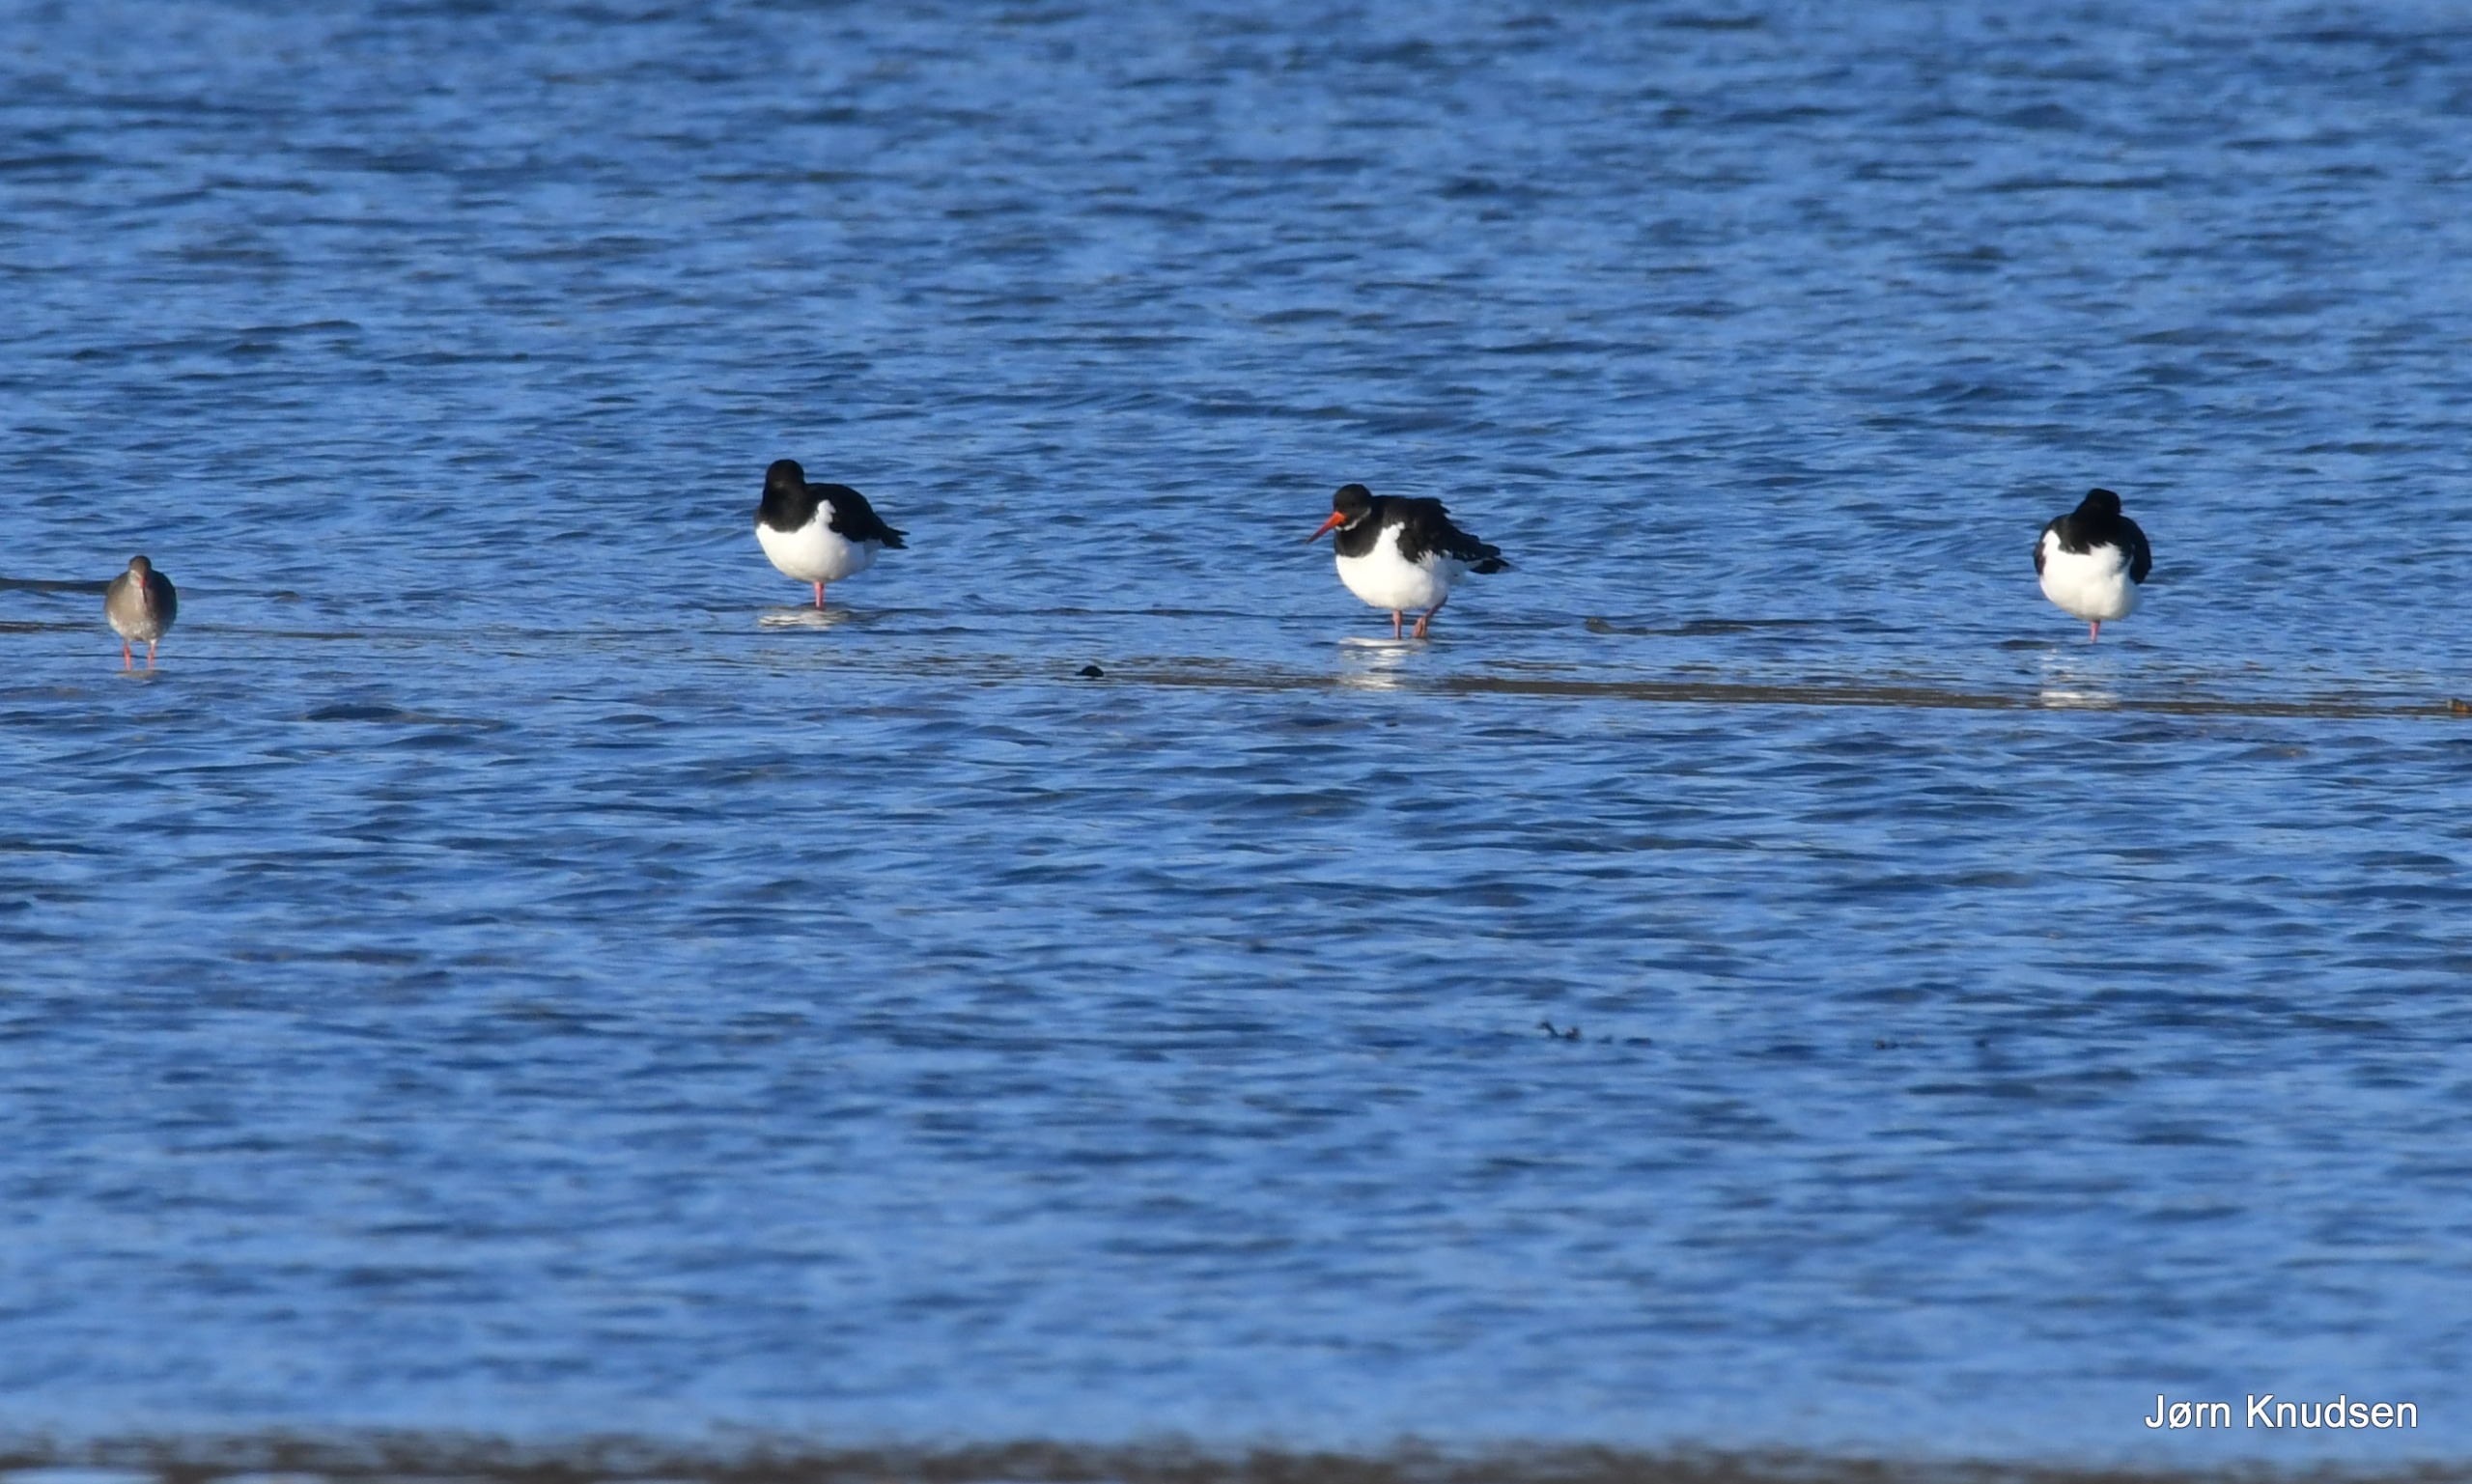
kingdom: Animalia
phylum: Chordata
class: Aves
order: Charadriiformes
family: Haematopodidae
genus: Haematopus
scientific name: Haematopus ostralegus
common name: Strandskade
